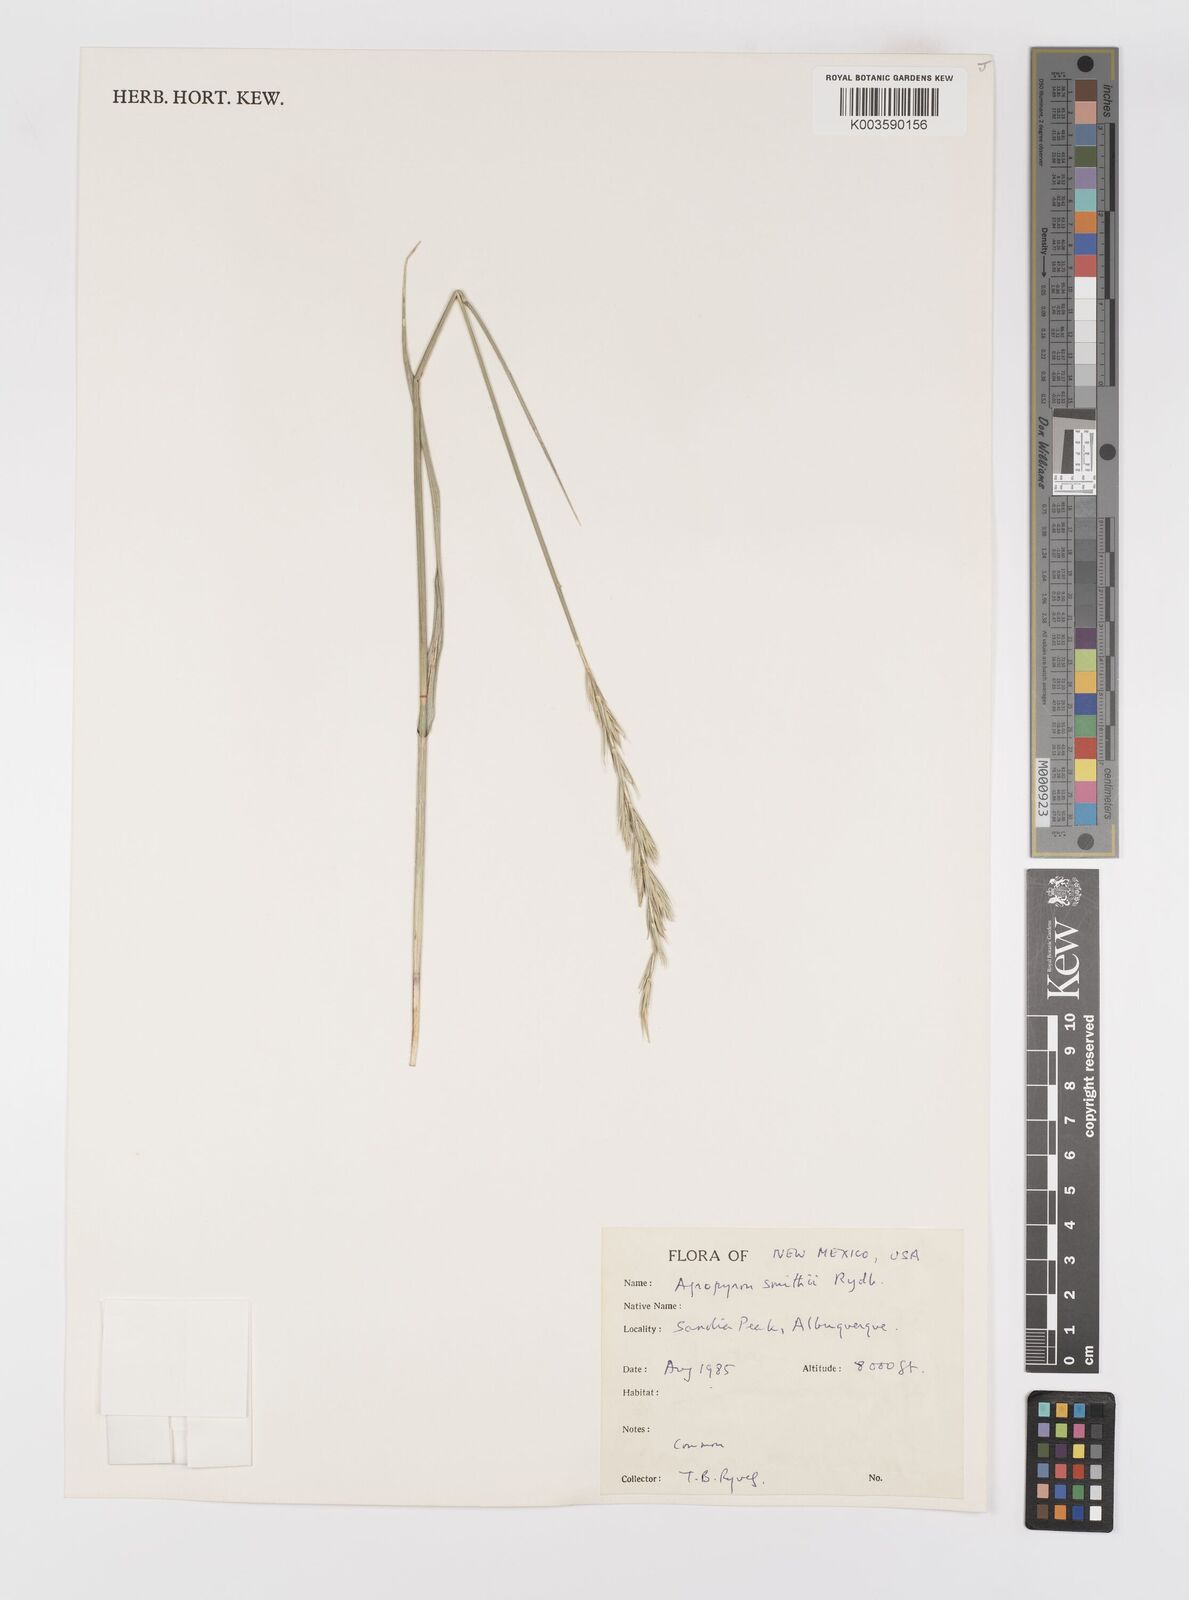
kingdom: Plantae
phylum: Tracheophyta
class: Liliopsida
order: Poales
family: Poaceae
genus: Elymus
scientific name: Elymus smithii
